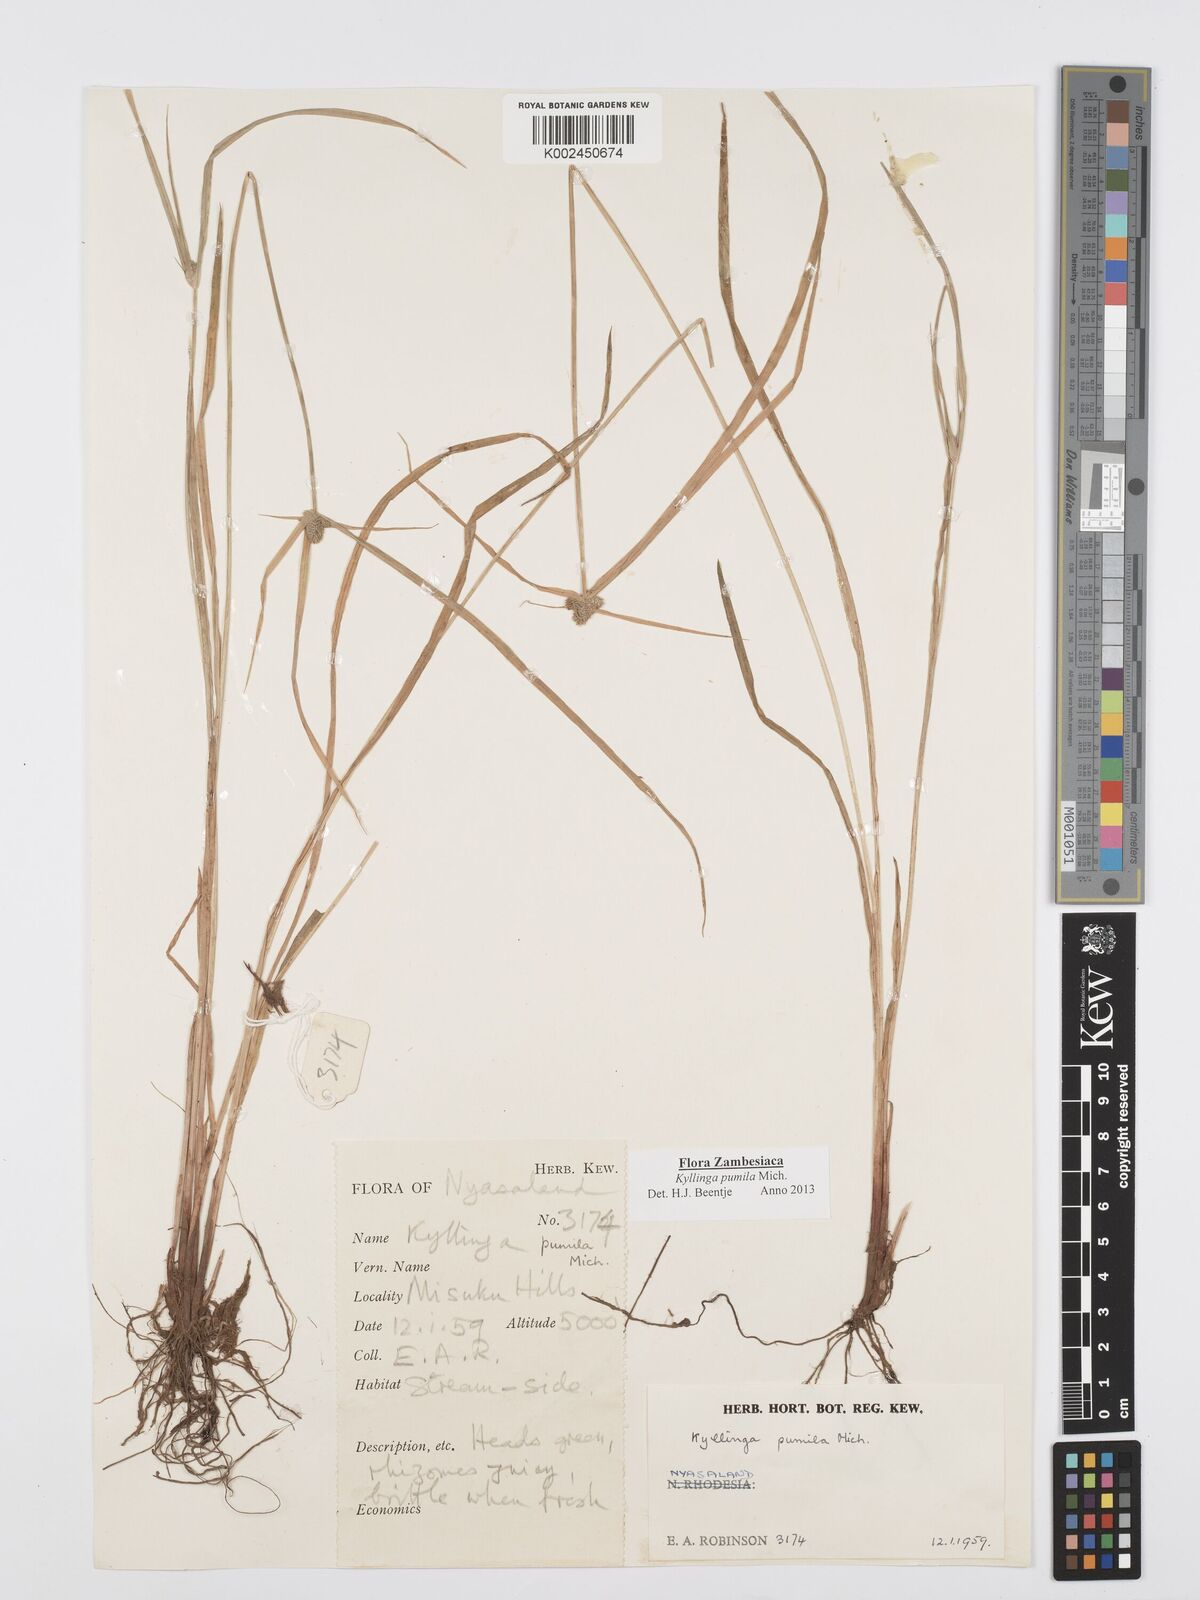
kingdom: Plantae
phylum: Tracheophyta
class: Liliopsida
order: Poales
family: Cyperaceae
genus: Cyperus
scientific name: Cyperus pumilus
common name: Low flatsedge
